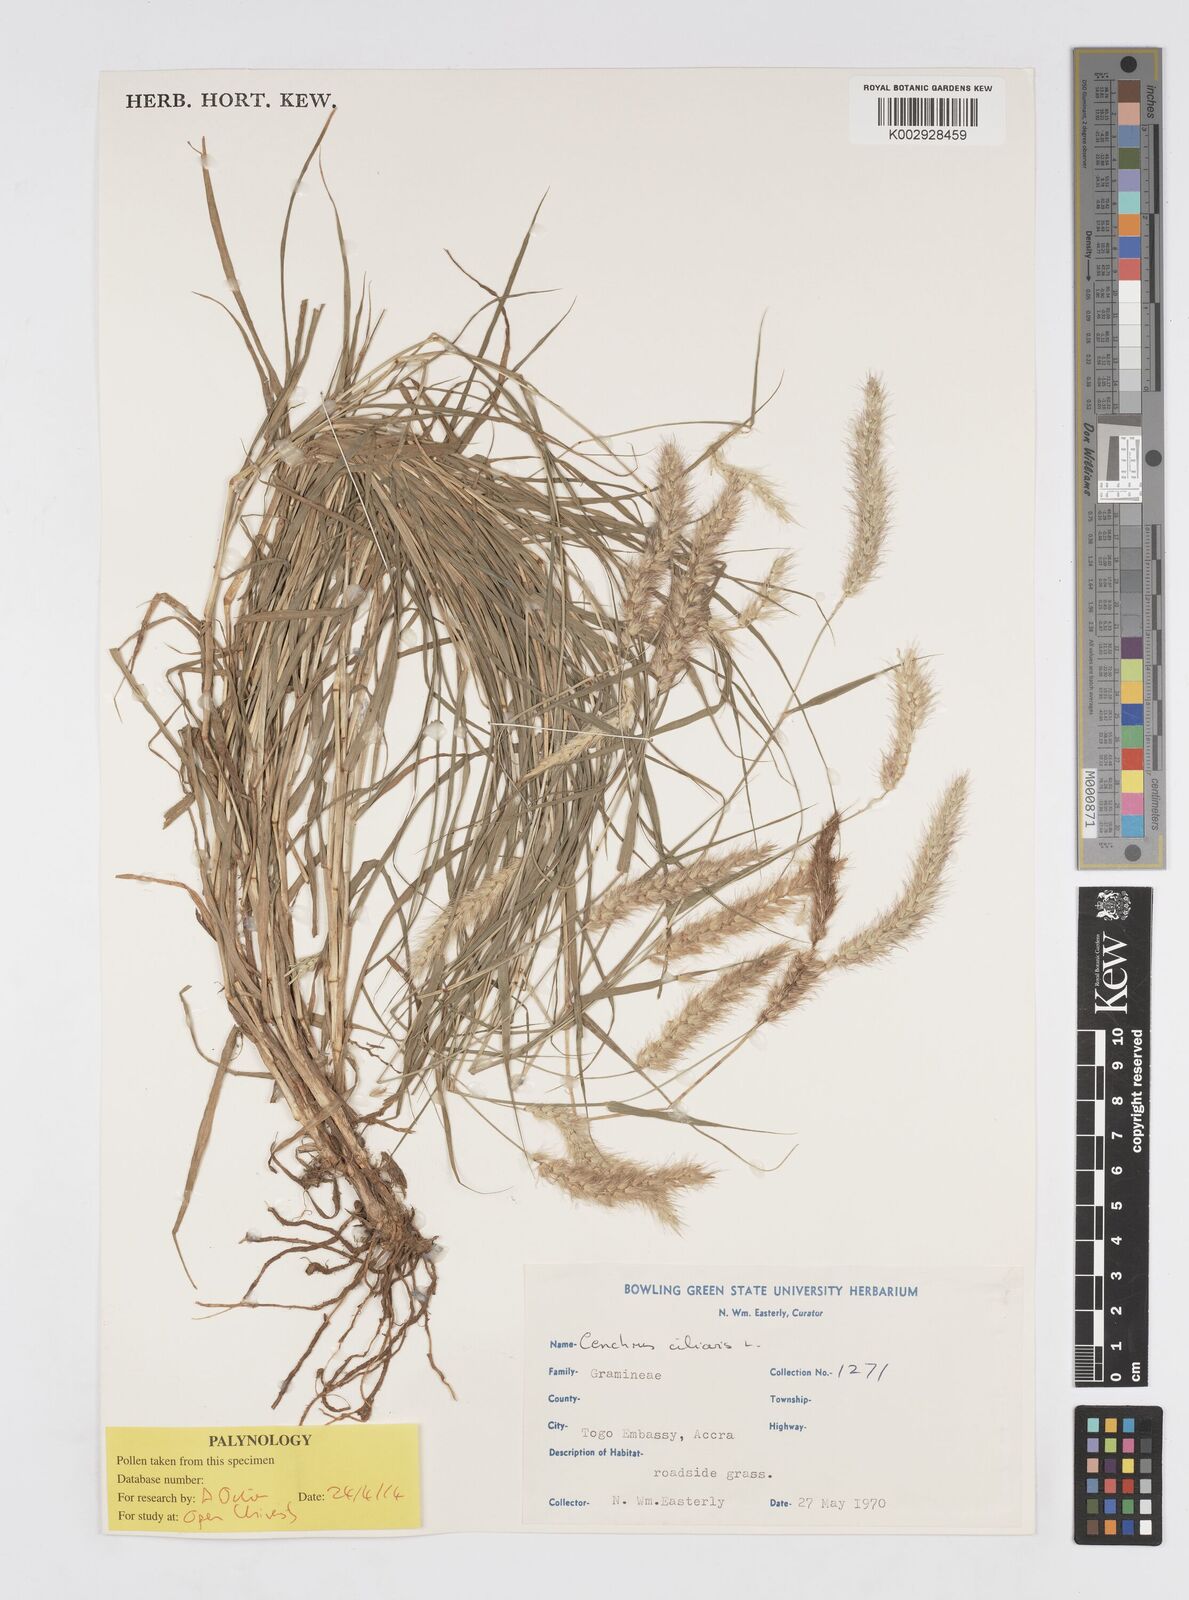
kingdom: Plantae
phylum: Tracheophyta
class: Liliopsida
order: Poales
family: Poaceae
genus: Cenchrus
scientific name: Cenchrus ciliaris
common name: Buffelgrass
